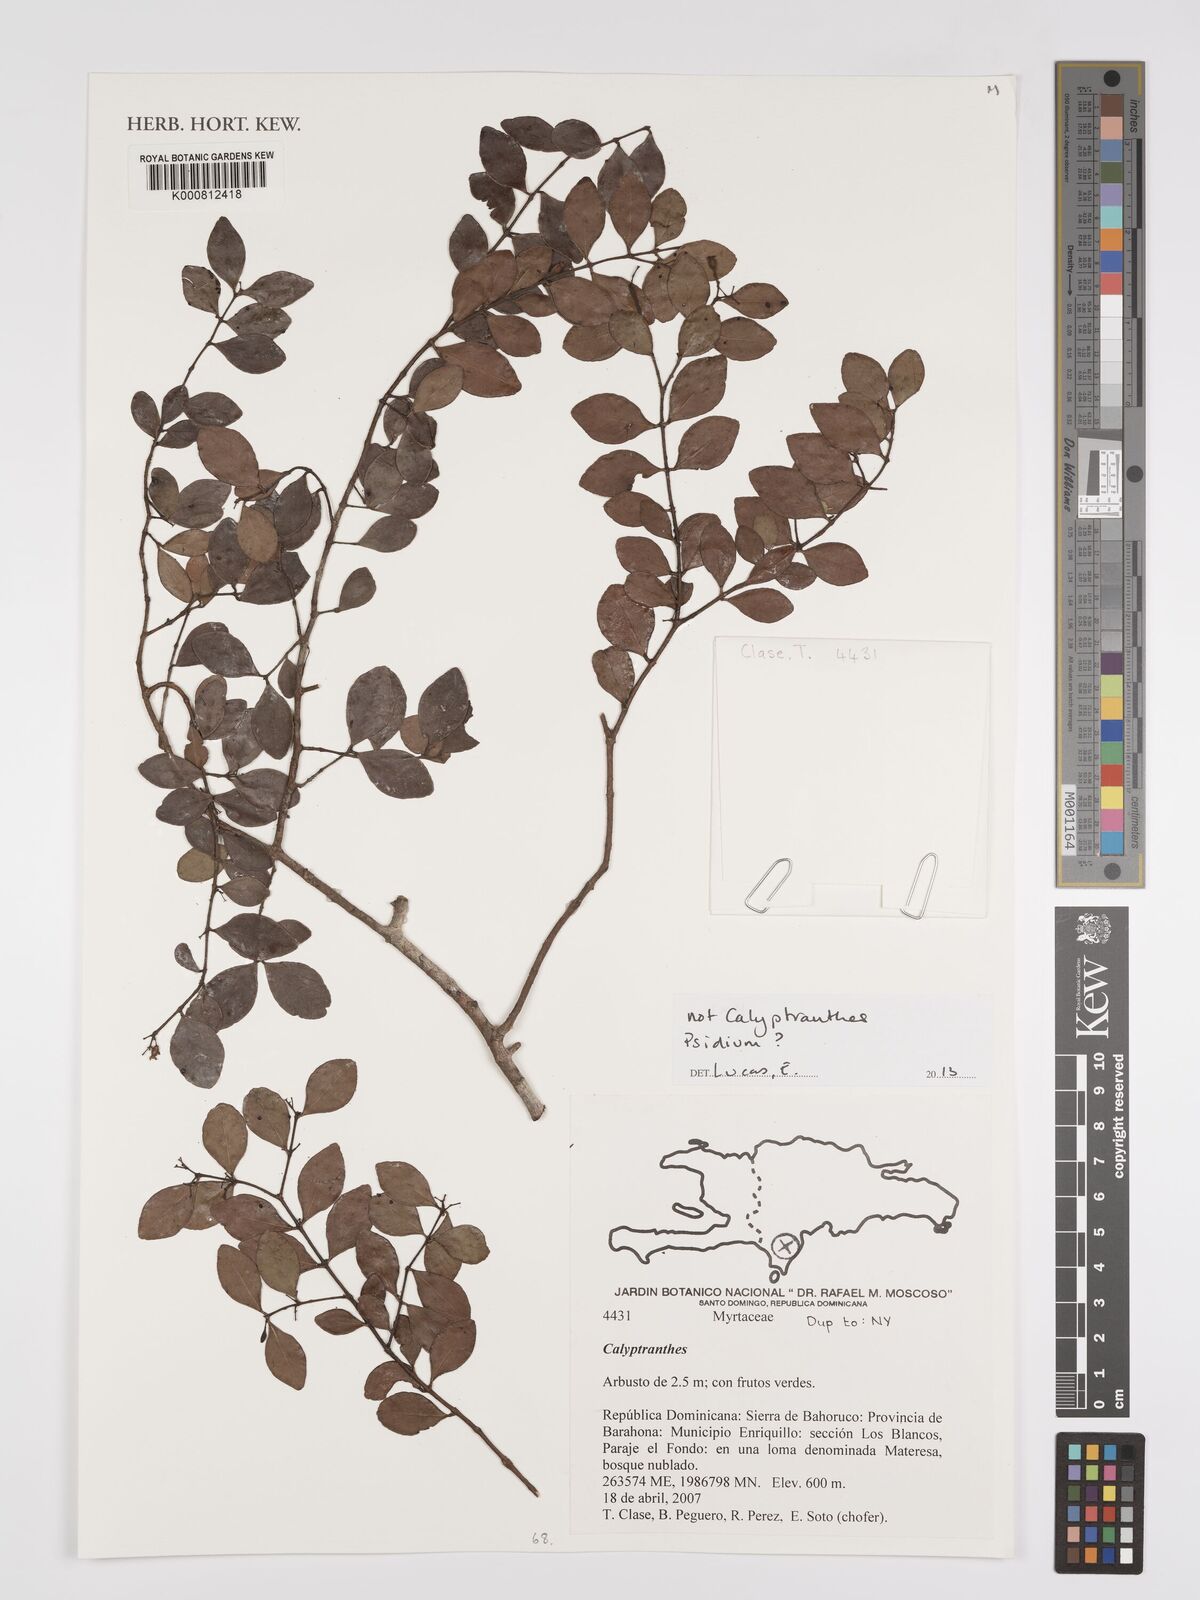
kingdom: Plantae
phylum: Tracheophyta
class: Magnoliopsida
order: Myrtales
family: Myrtaceae
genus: Psidium
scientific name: Psidium
